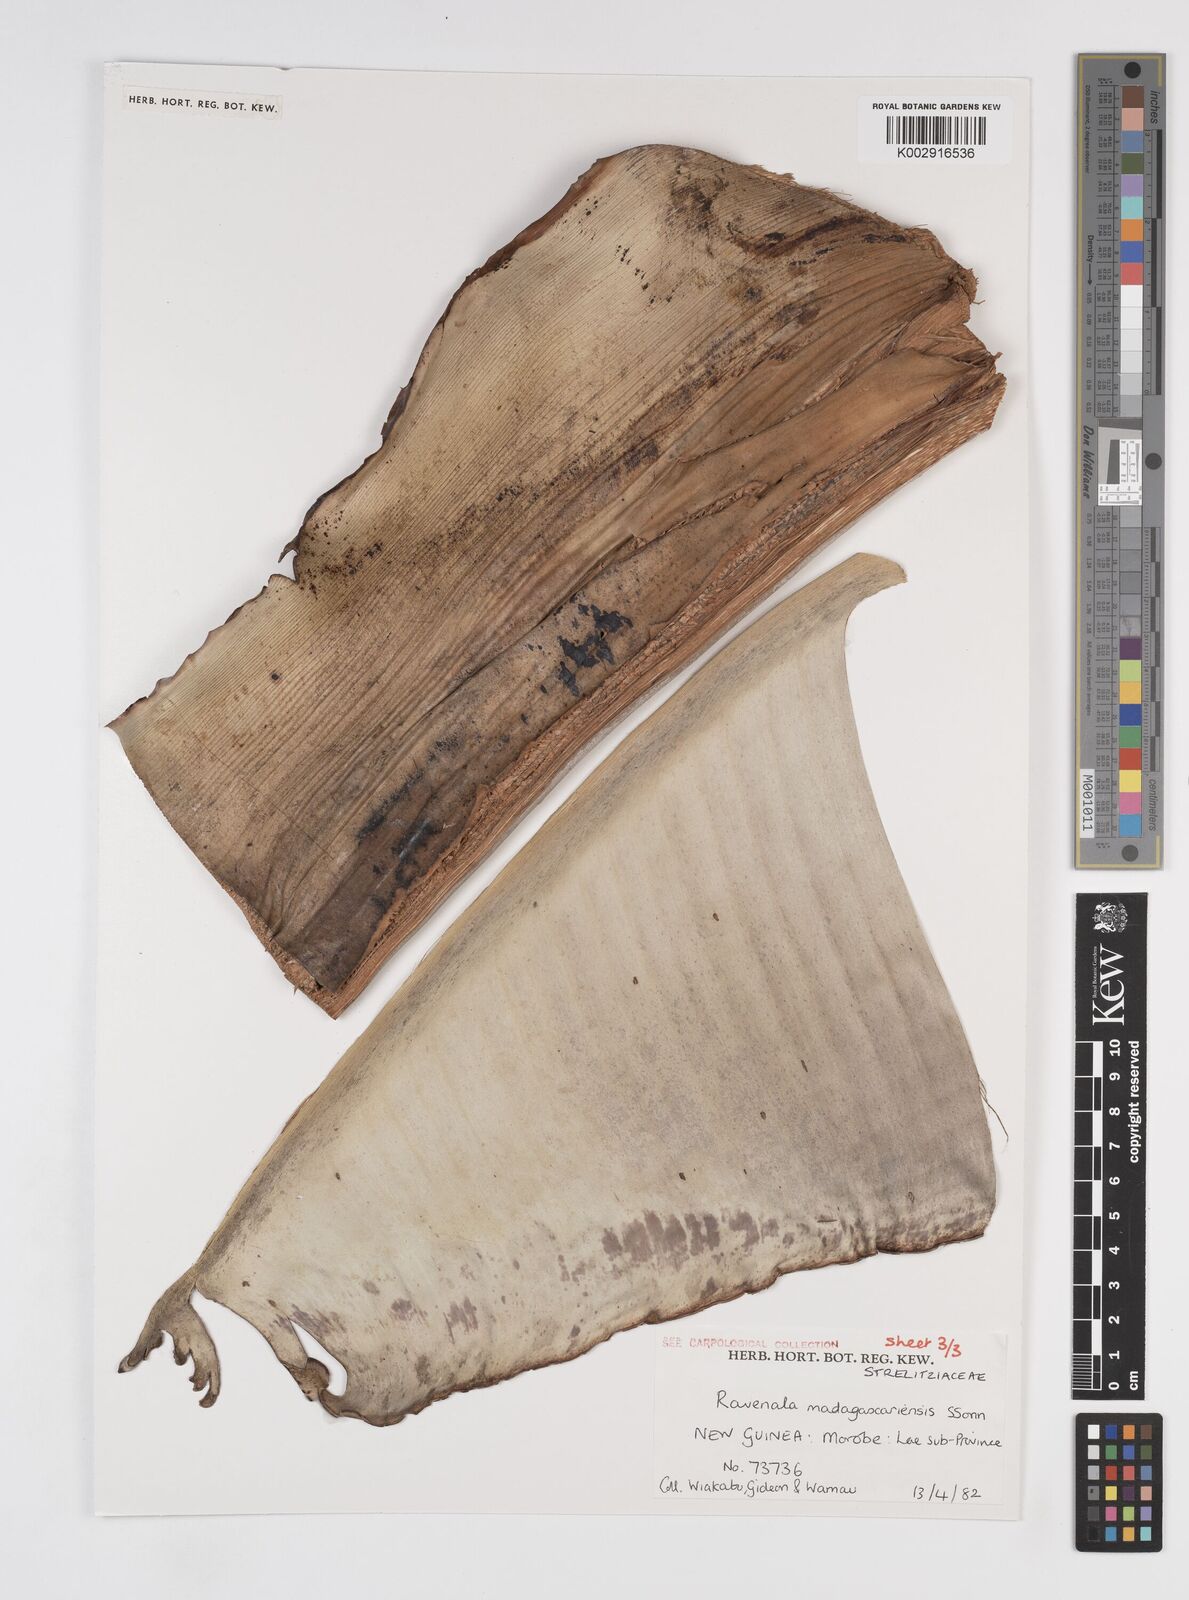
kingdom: Plantae
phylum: Tracheophyta
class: Liliopsida
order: Zingiberales
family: Strelitziaceae
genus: Ravenala
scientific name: Ravenala madagascariensis
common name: Traveler's-palm
